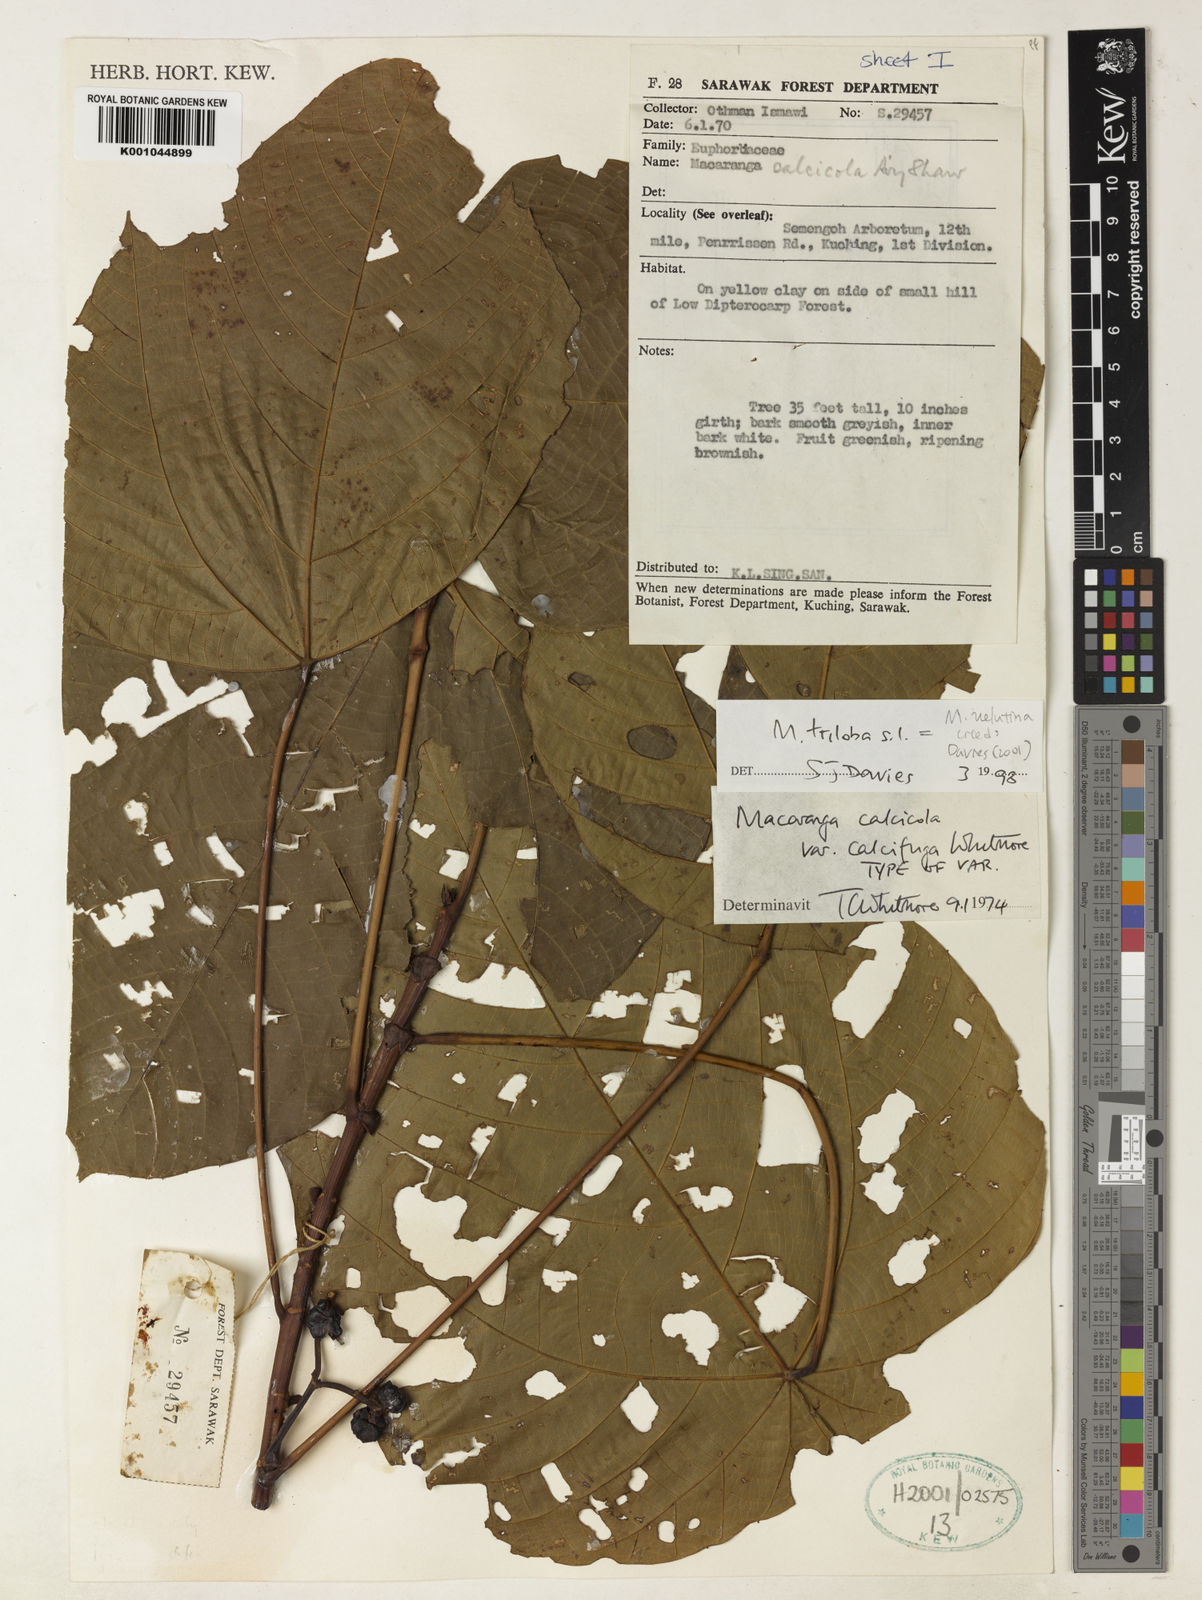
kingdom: Plantae
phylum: Tracheophyta
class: Magnoliopsida
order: Malpighiales
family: Euphorbiaceae
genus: Macaranga
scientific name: Macaranga calcicola
